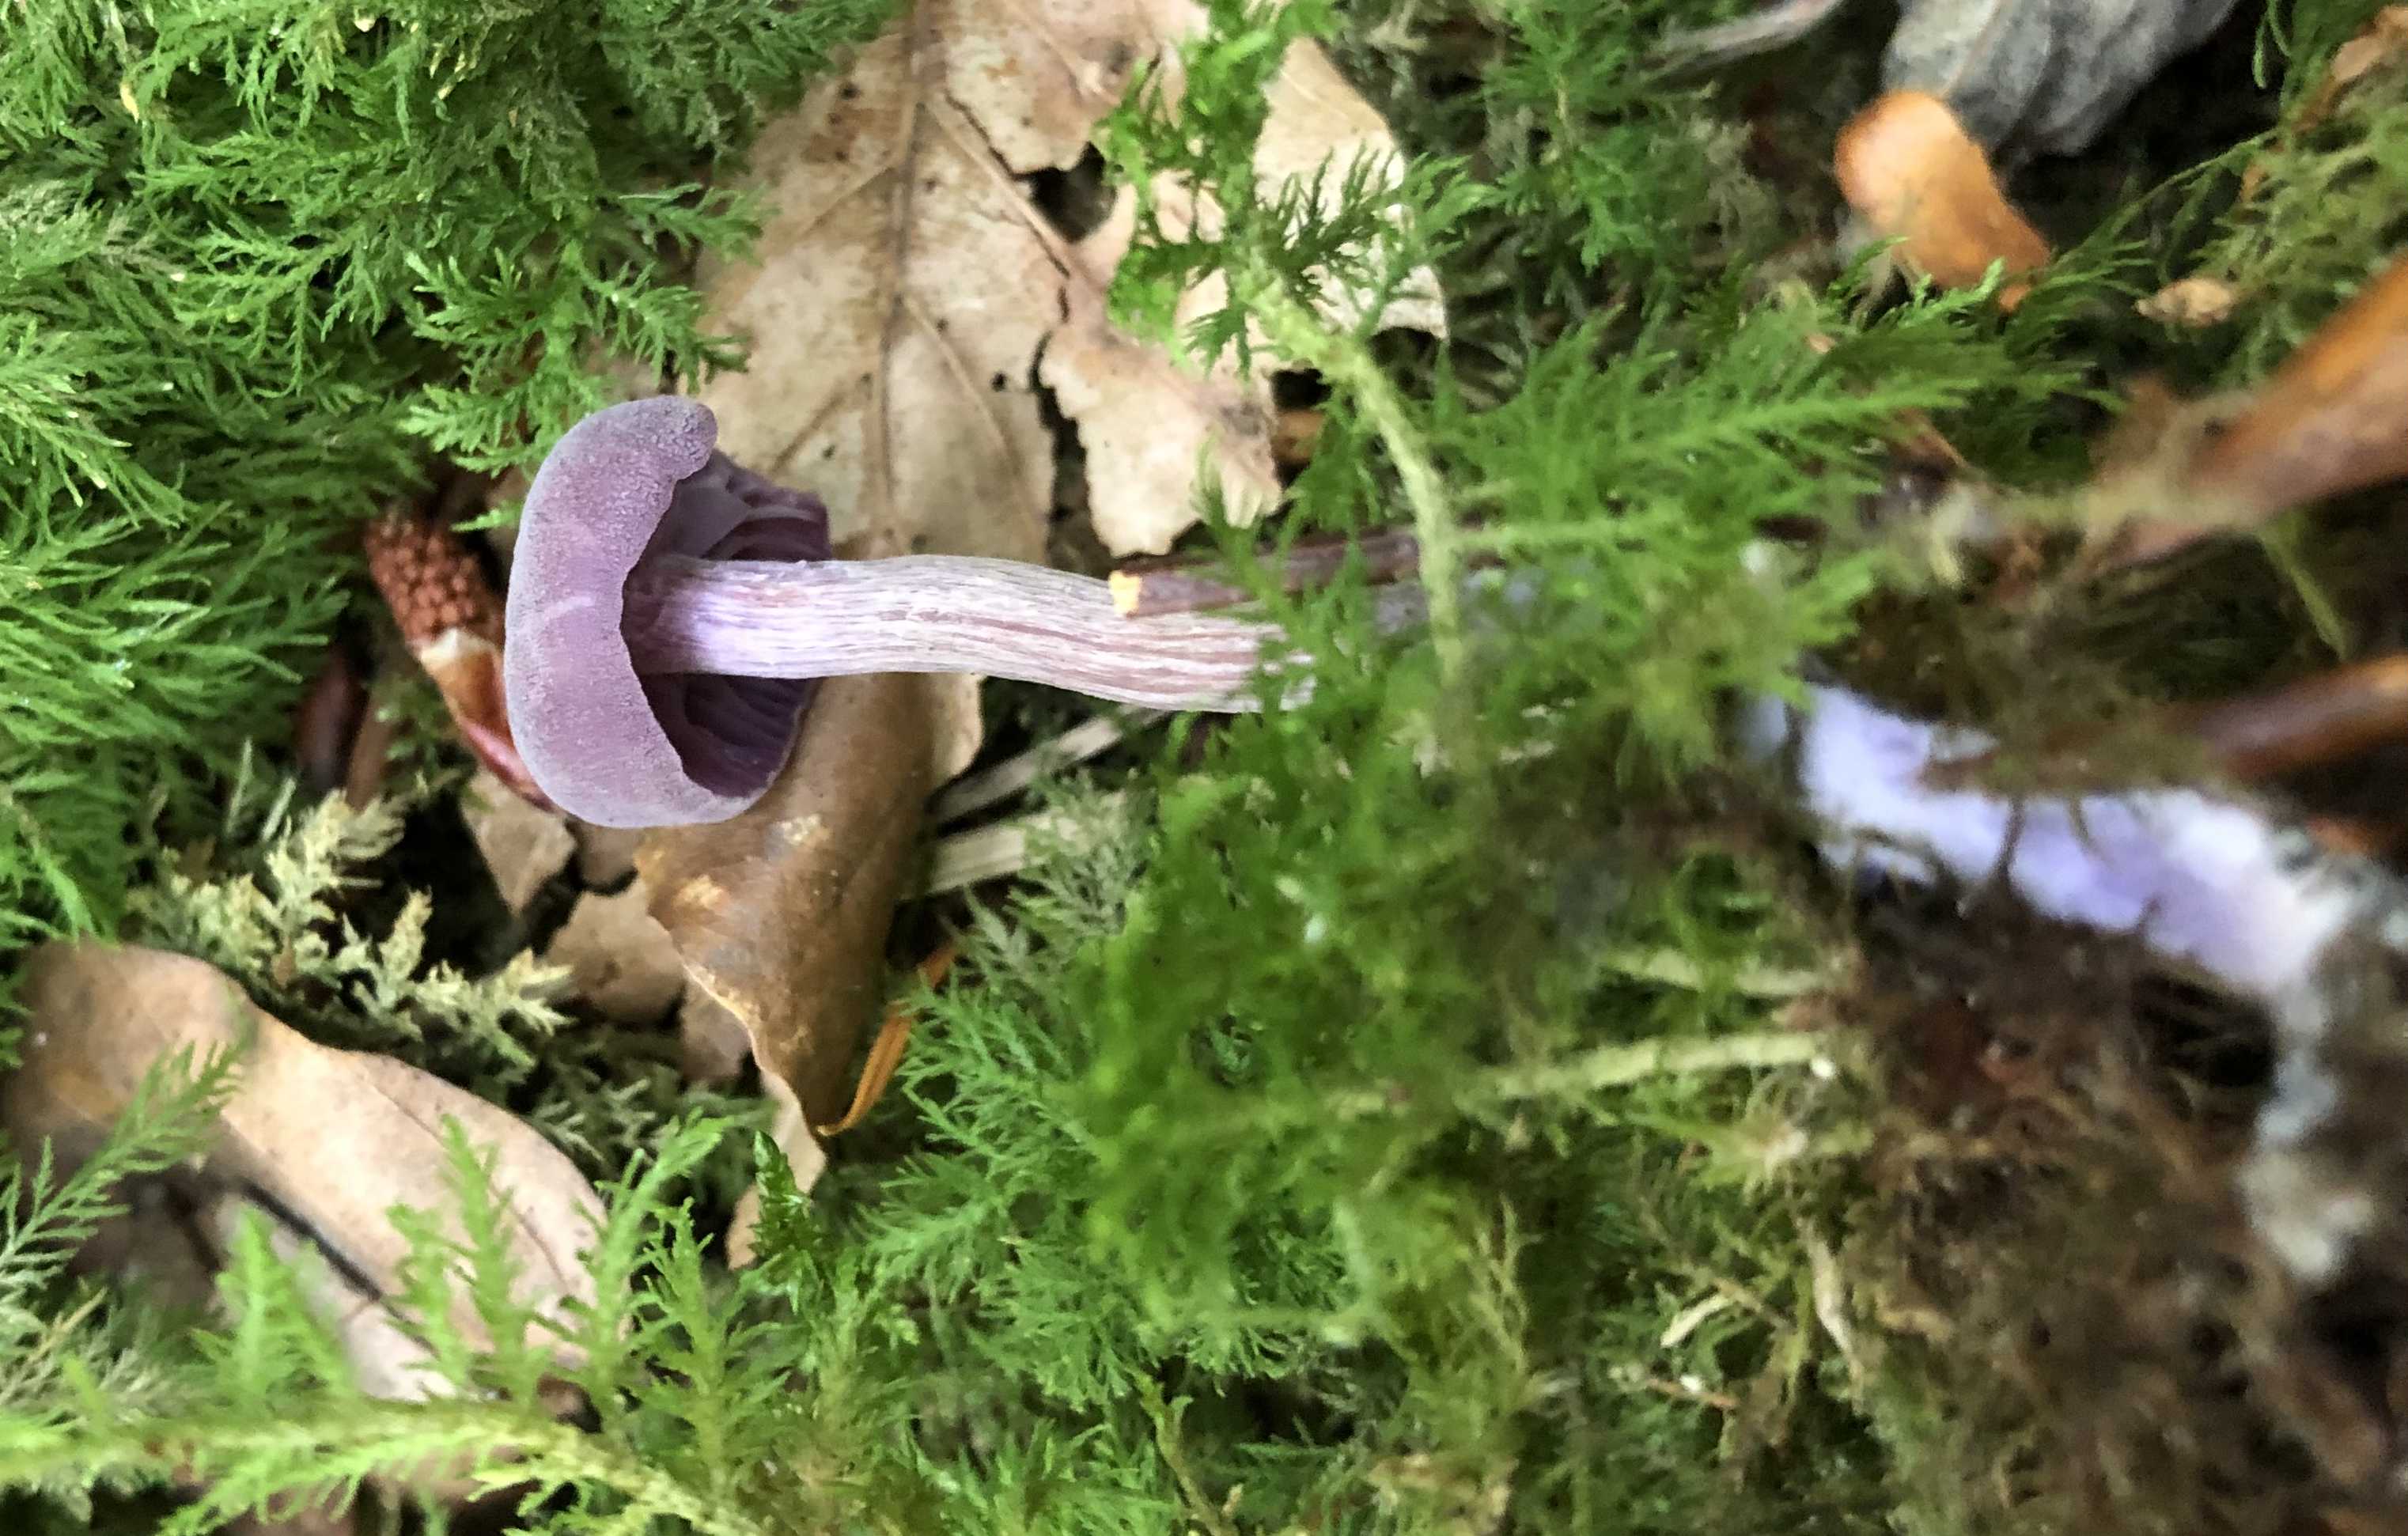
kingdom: Fungi
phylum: Basidiomycota
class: Agaricomycetes
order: Agaricales
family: Hydnangiaceae
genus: Laccaria
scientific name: Laccaria amethystina
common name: violet ametysthat
